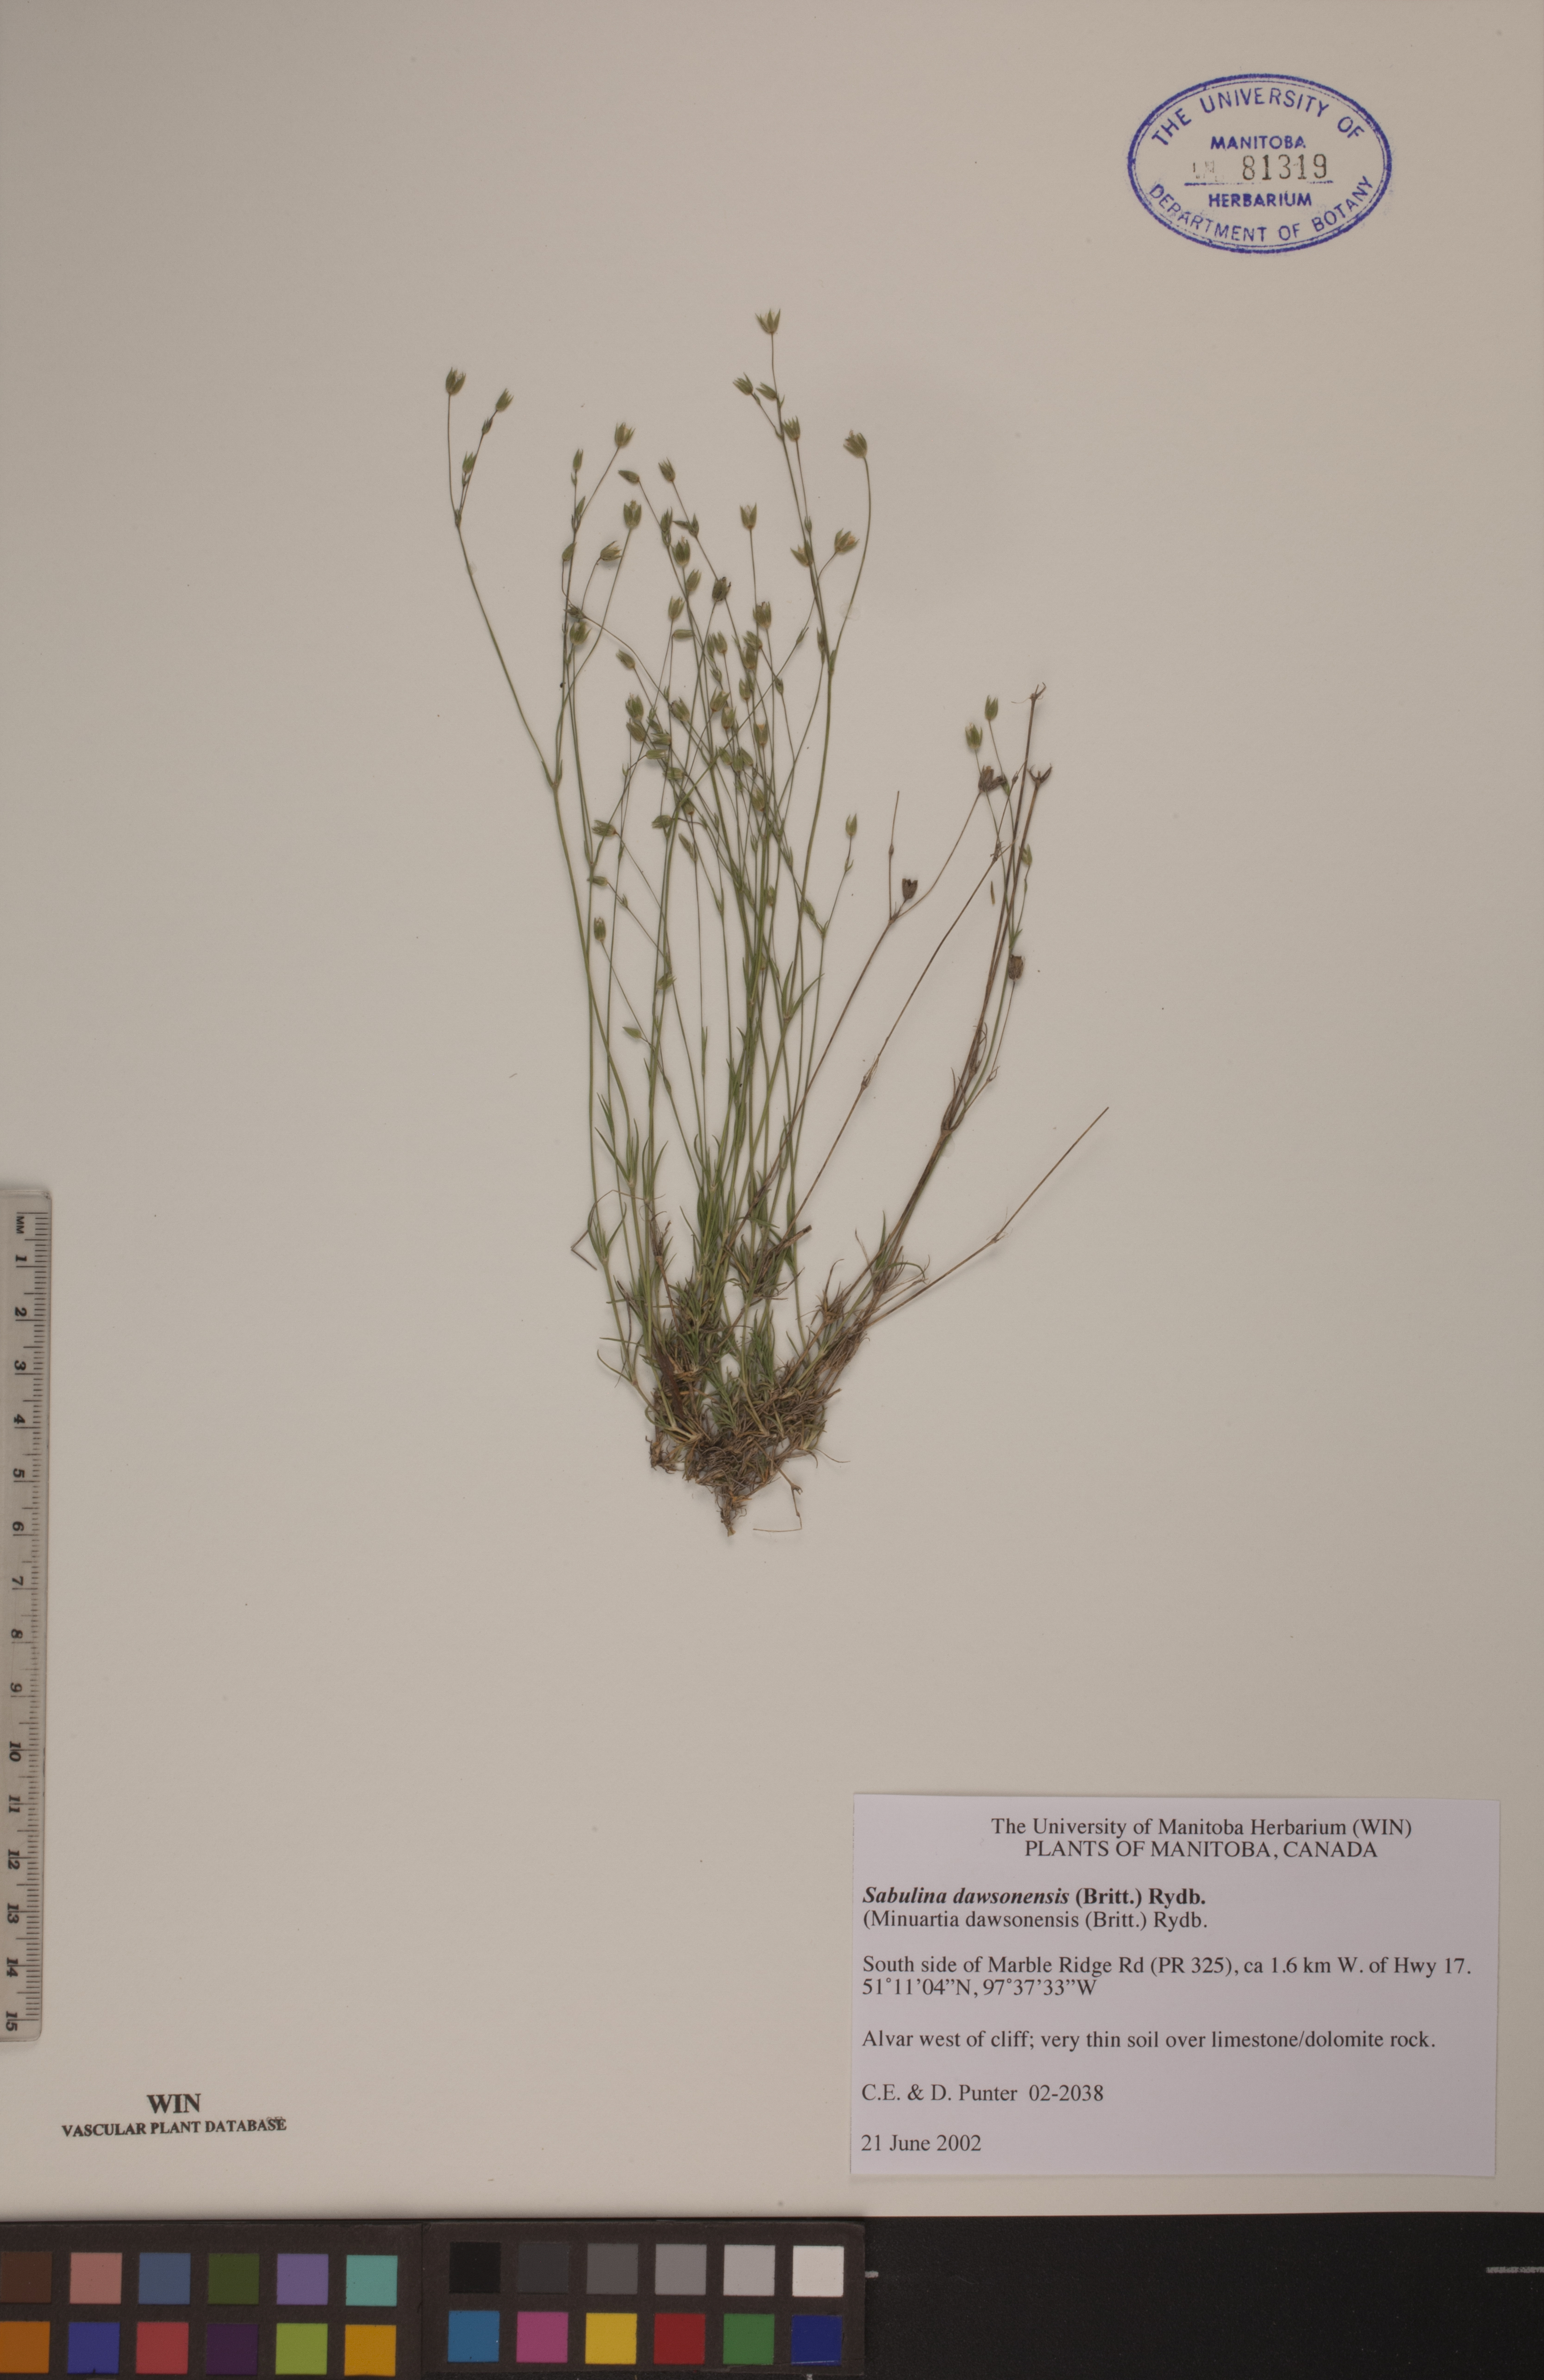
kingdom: Plantae
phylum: Tracheophyta
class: Magnoliopsida
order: Caryophyllales
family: Caryophyllaceae
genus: Sabulina
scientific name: Sabulina dawsonensis
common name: Dawson's cockle
